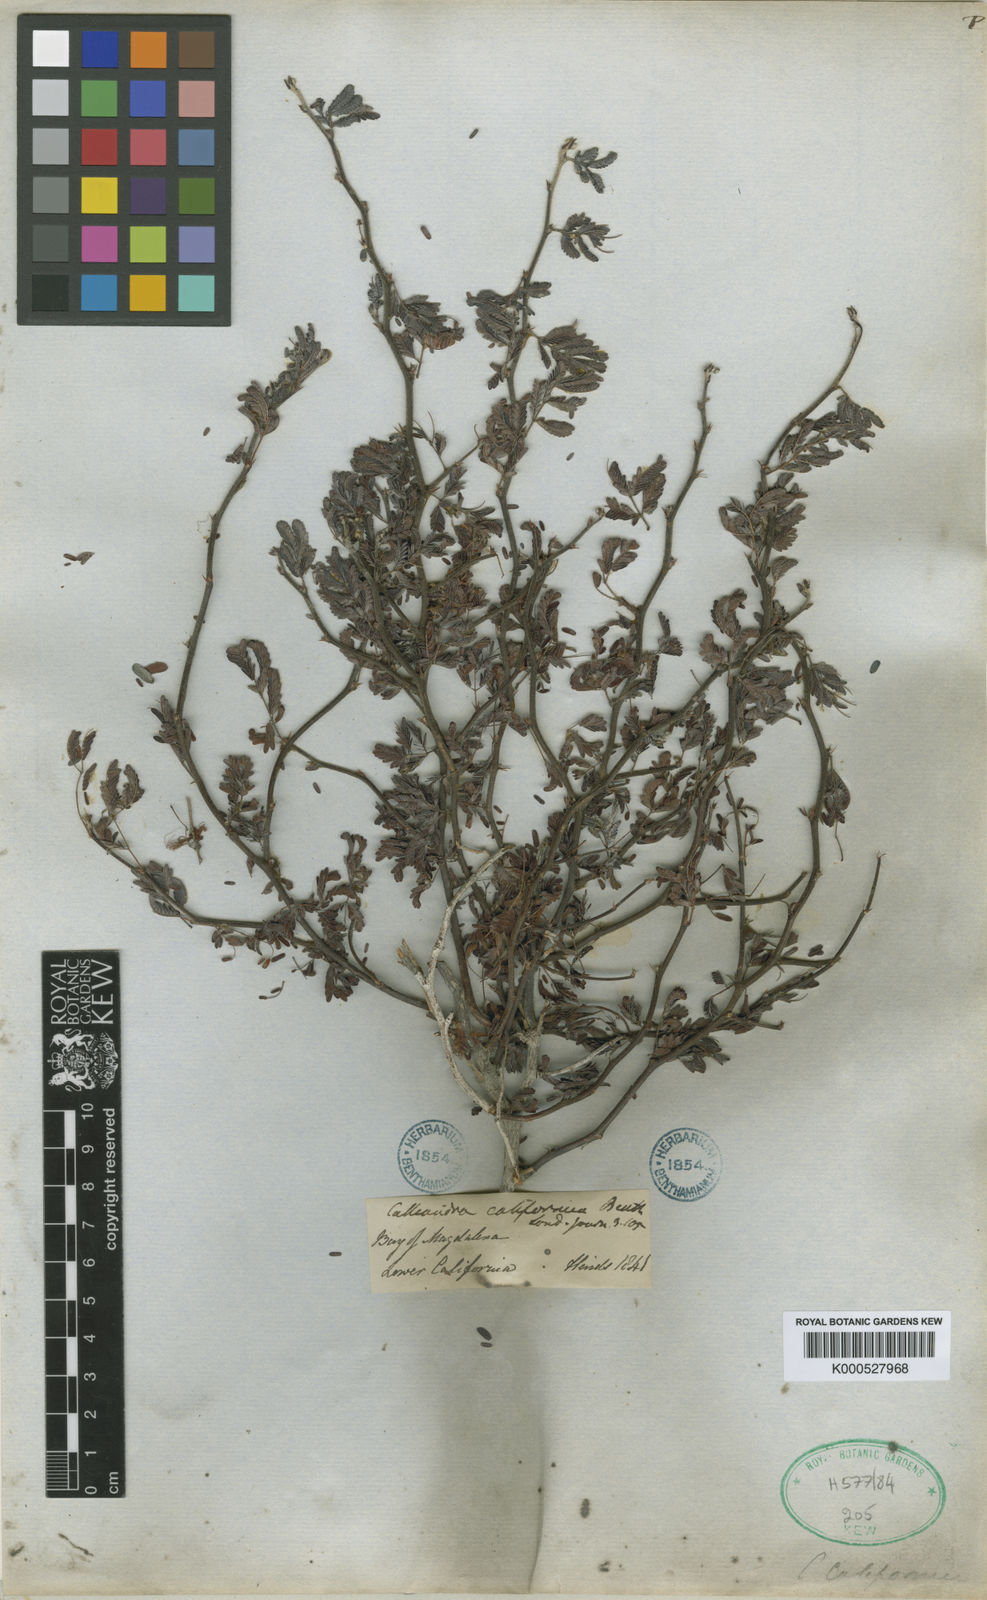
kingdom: Plantae
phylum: Tracheophyta
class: Magnoliopsida
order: Fabales
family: Fabaceae
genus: Calliandra
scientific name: Calliandra californica
